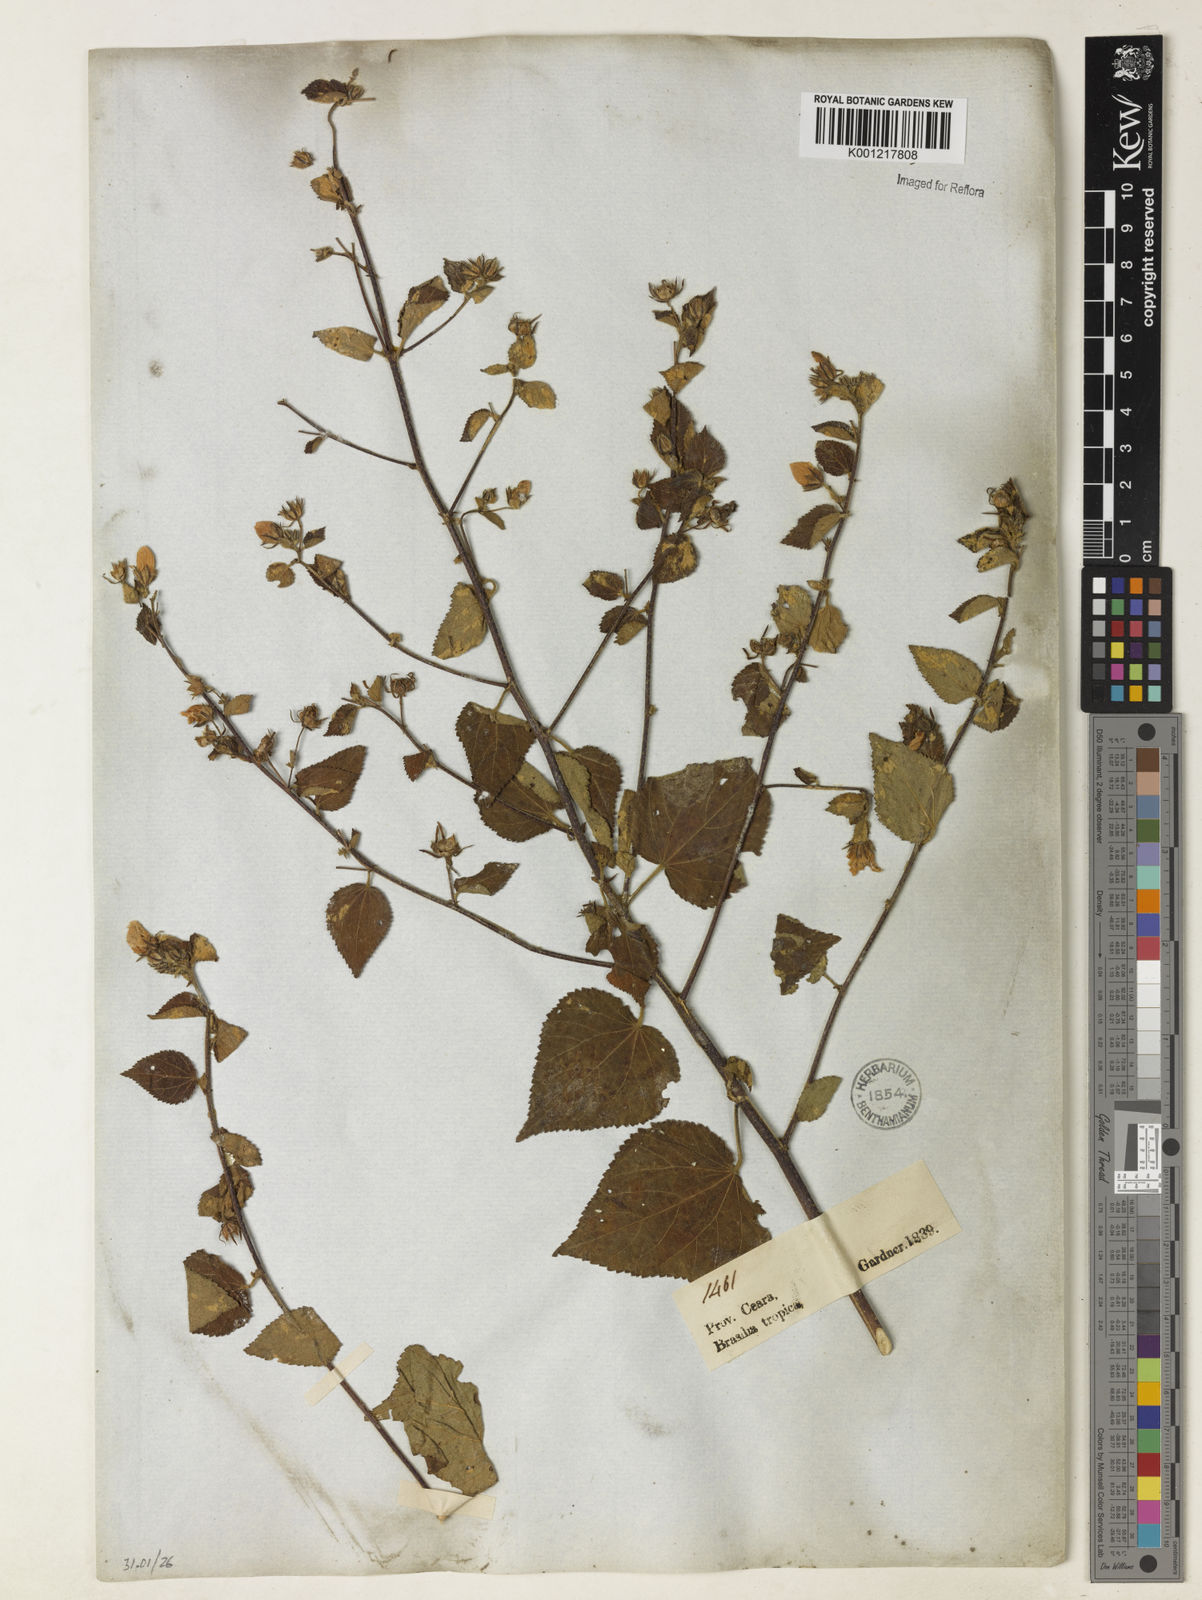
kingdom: Plantae
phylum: Tracheophyta
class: Magnoliopsida
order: Malvales
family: Malvaceae
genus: Pavonia
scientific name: Pavonia
